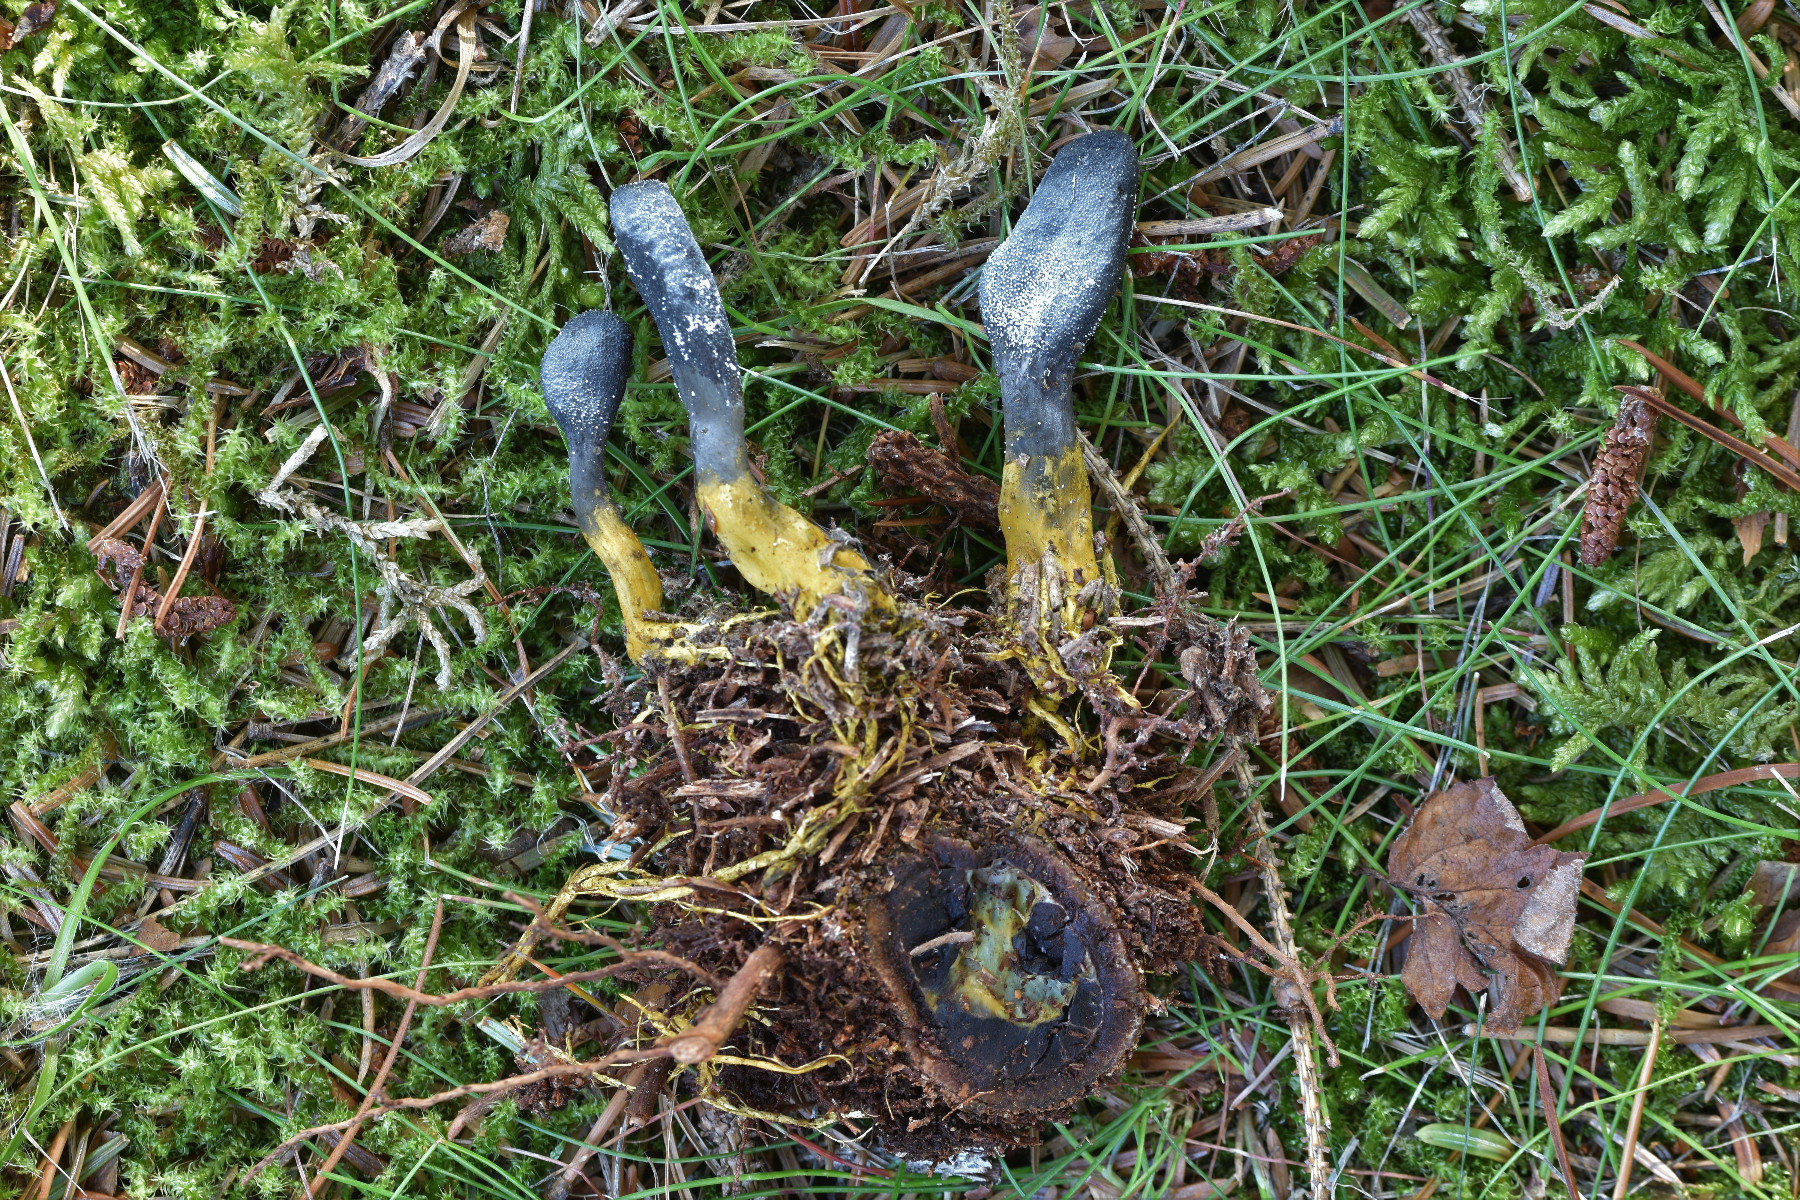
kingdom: Fungi
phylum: Ascomycota
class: Sordariomycetes
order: Hypocreales
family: Ophiocordycipitaceae
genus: Tolypocladium
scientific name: Tolypocladium ophioglossoides
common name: slank snyltekølle
